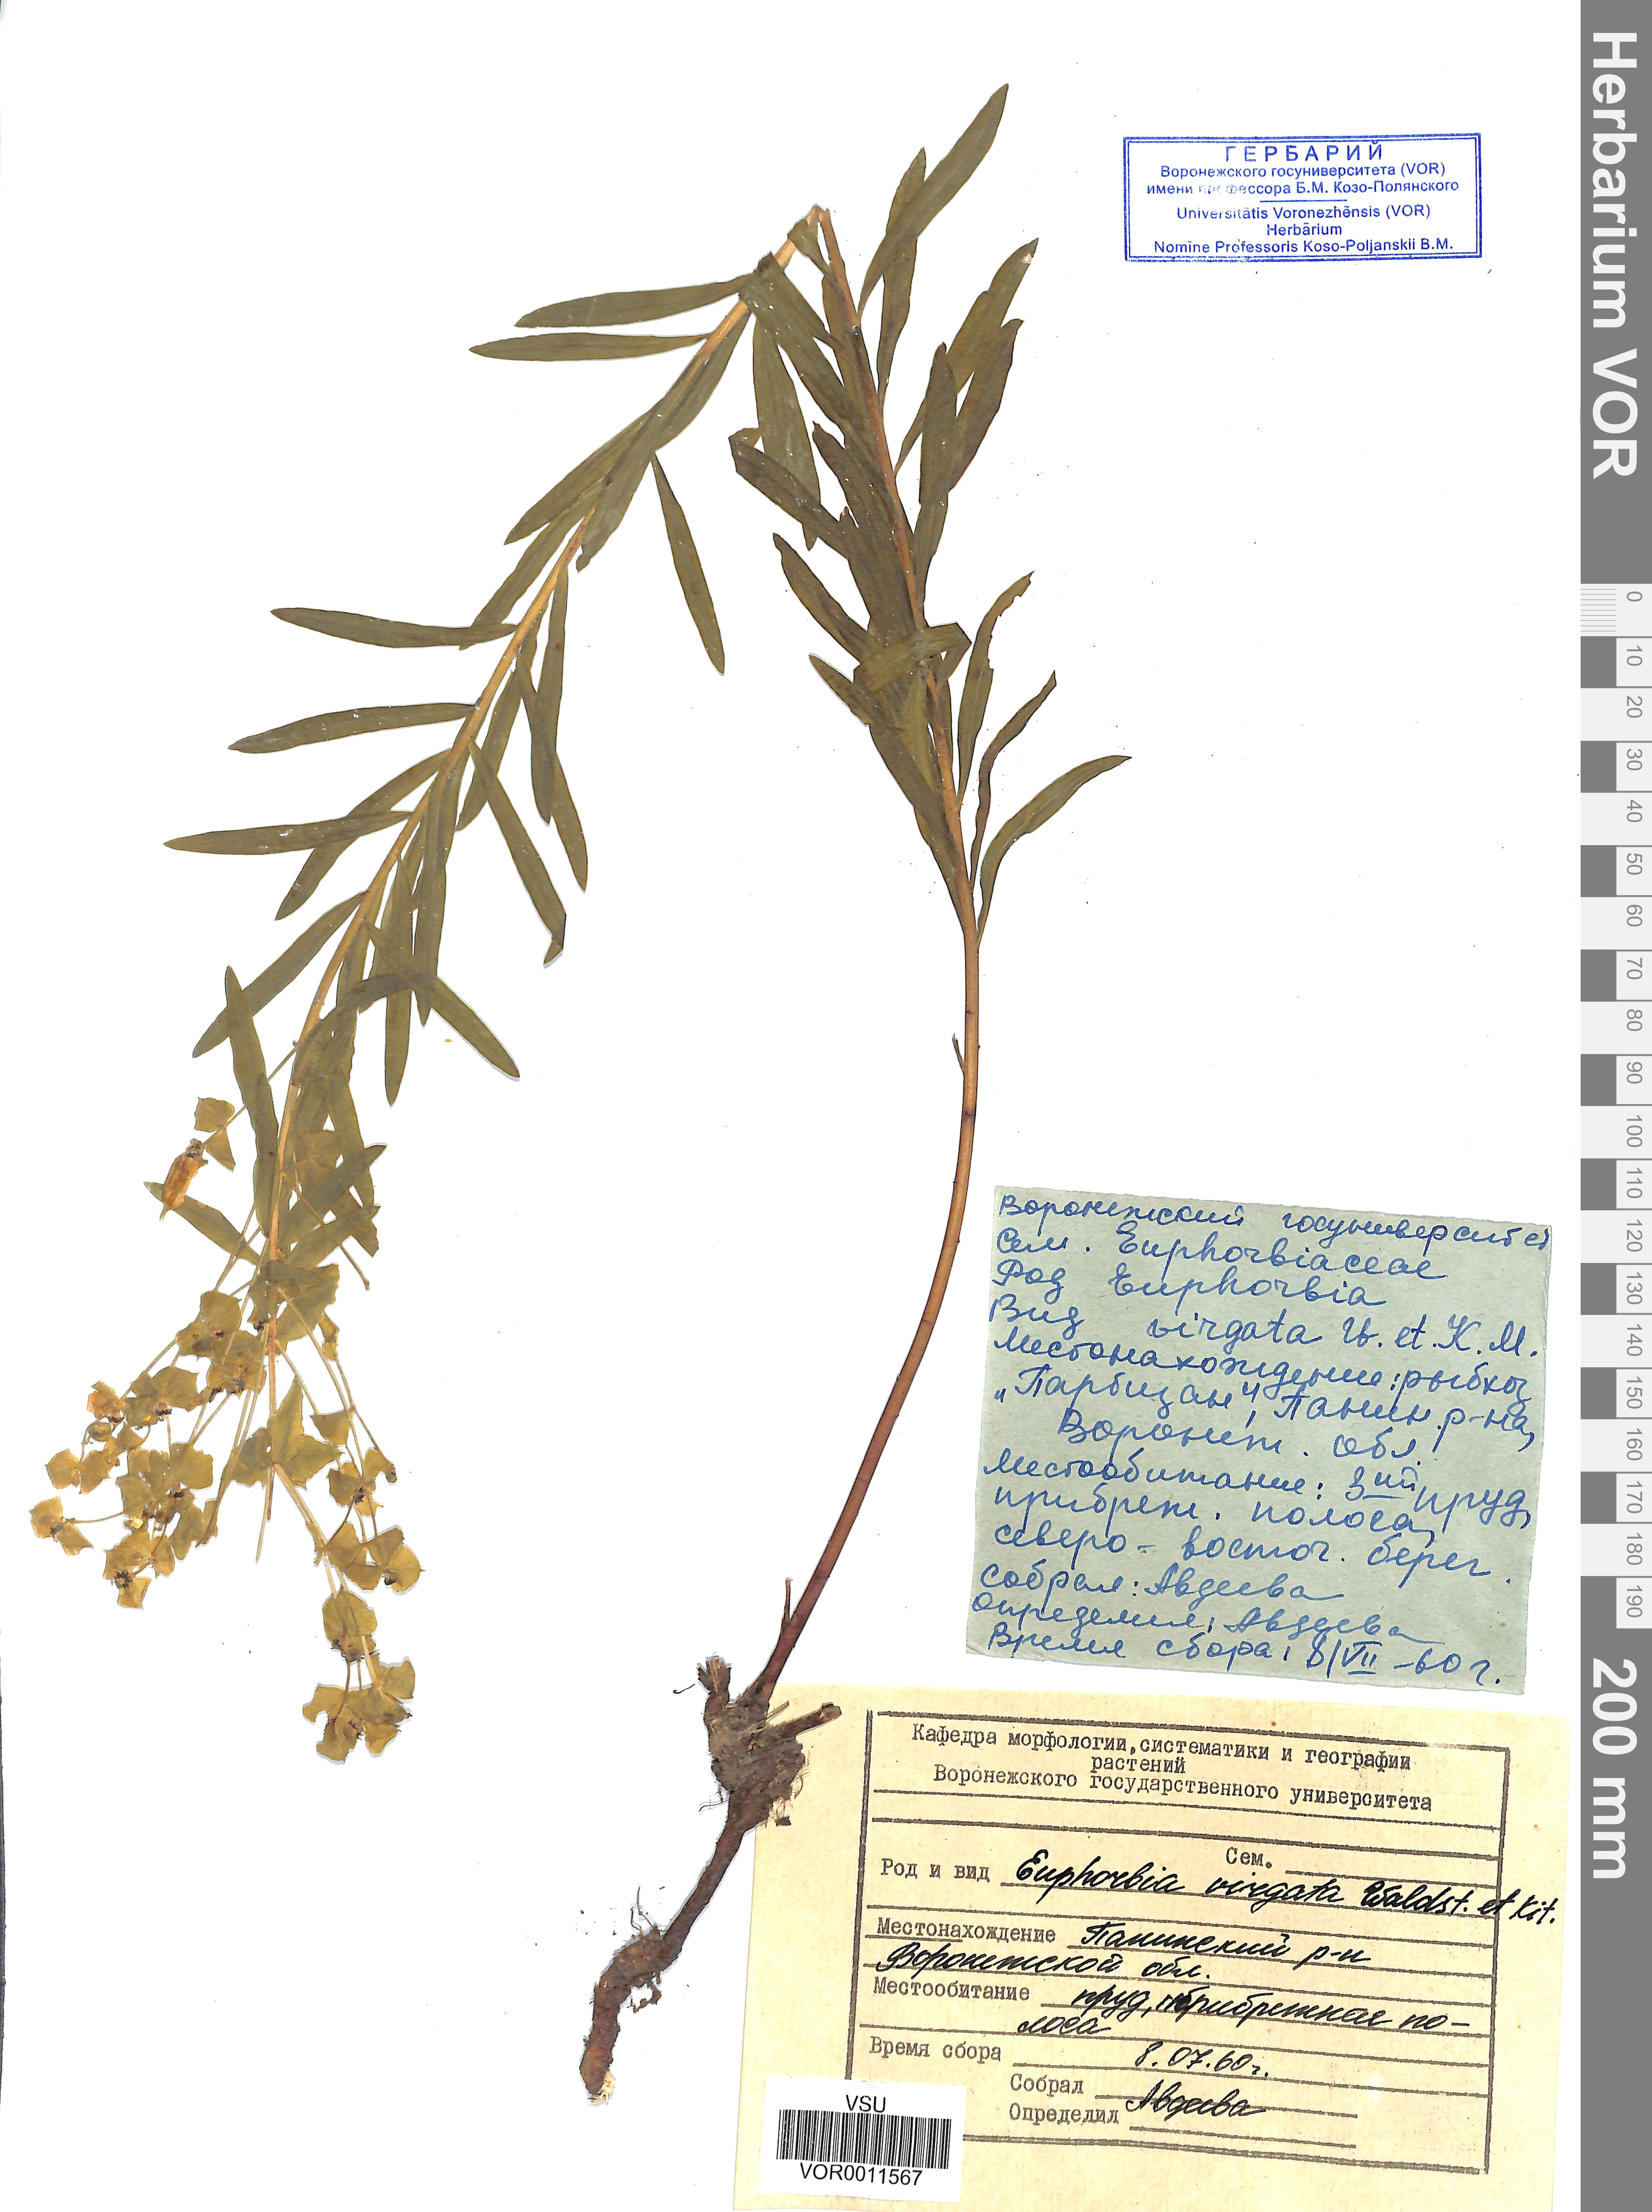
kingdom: Plantae
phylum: Tracheophyta
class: Magnoliopsida
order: Malpighiales
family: Euphorbiaceae
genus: Euphorbia
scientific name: Euphorbia virgata
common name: Leafy spurge
